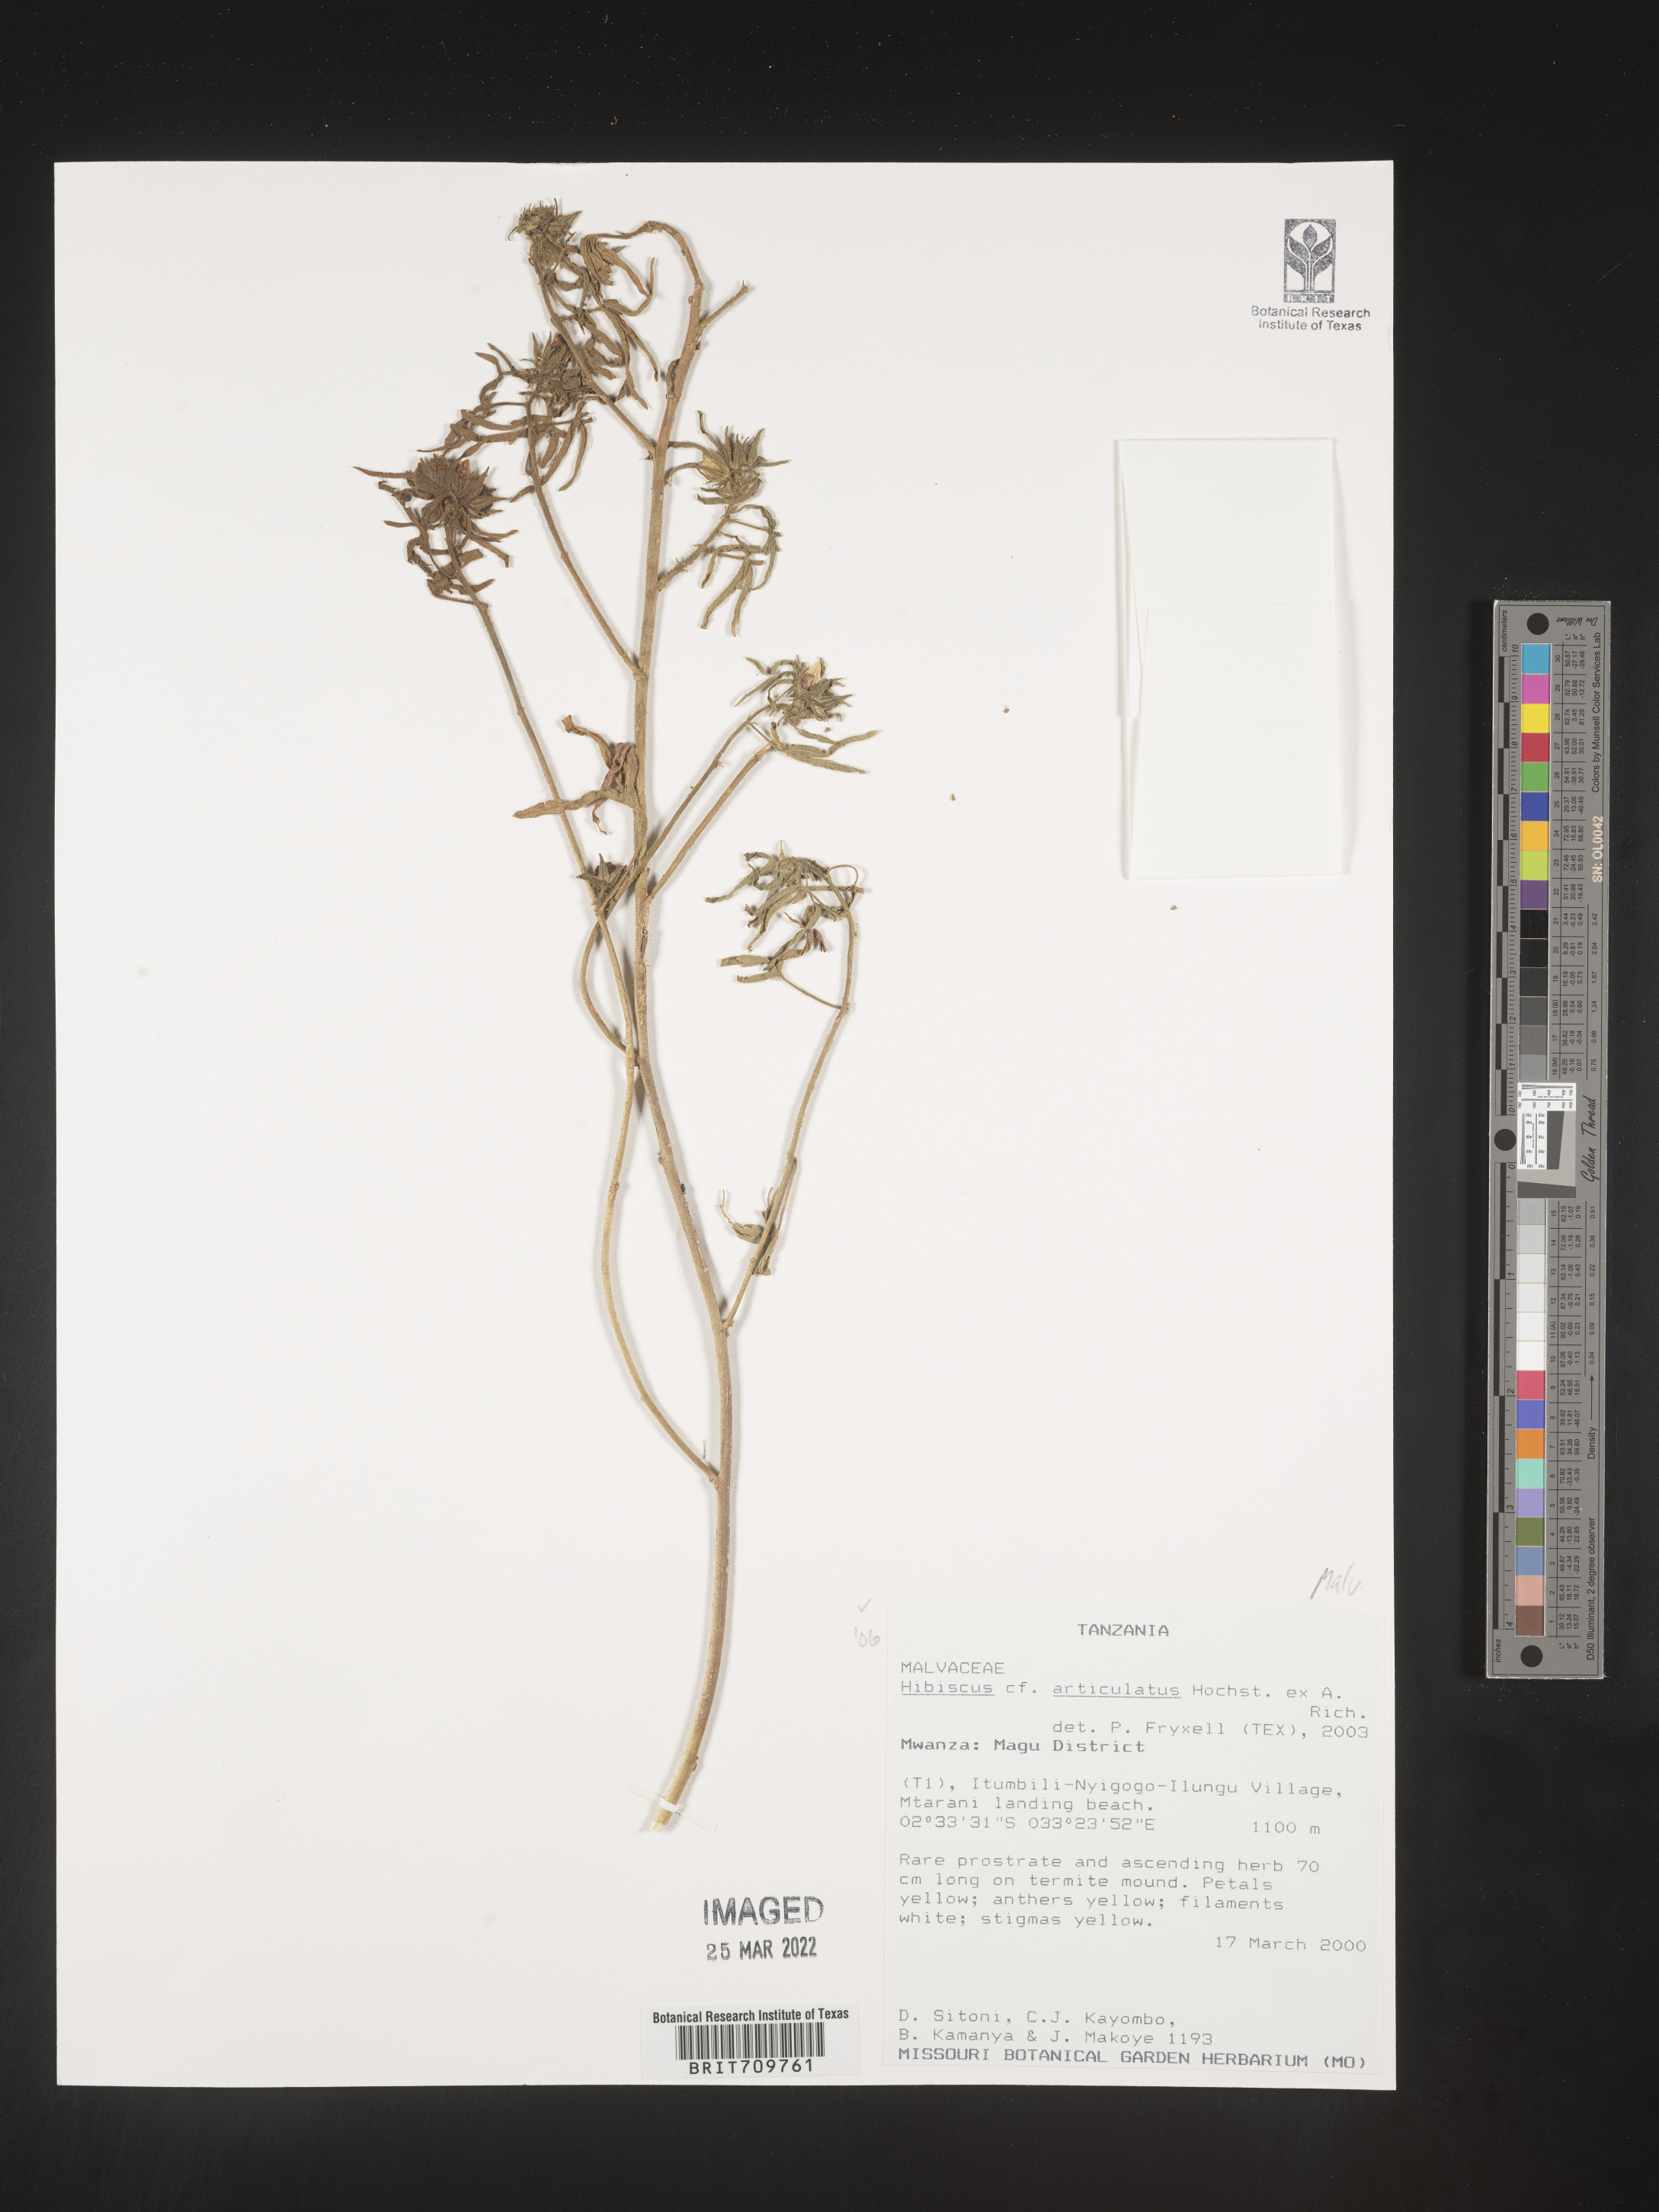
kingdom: Plantae
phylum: Tracheophyta
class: Magnoliopsida
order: Malvales
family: Malvaceae
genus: Hibiscus
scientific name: Hibiscus
